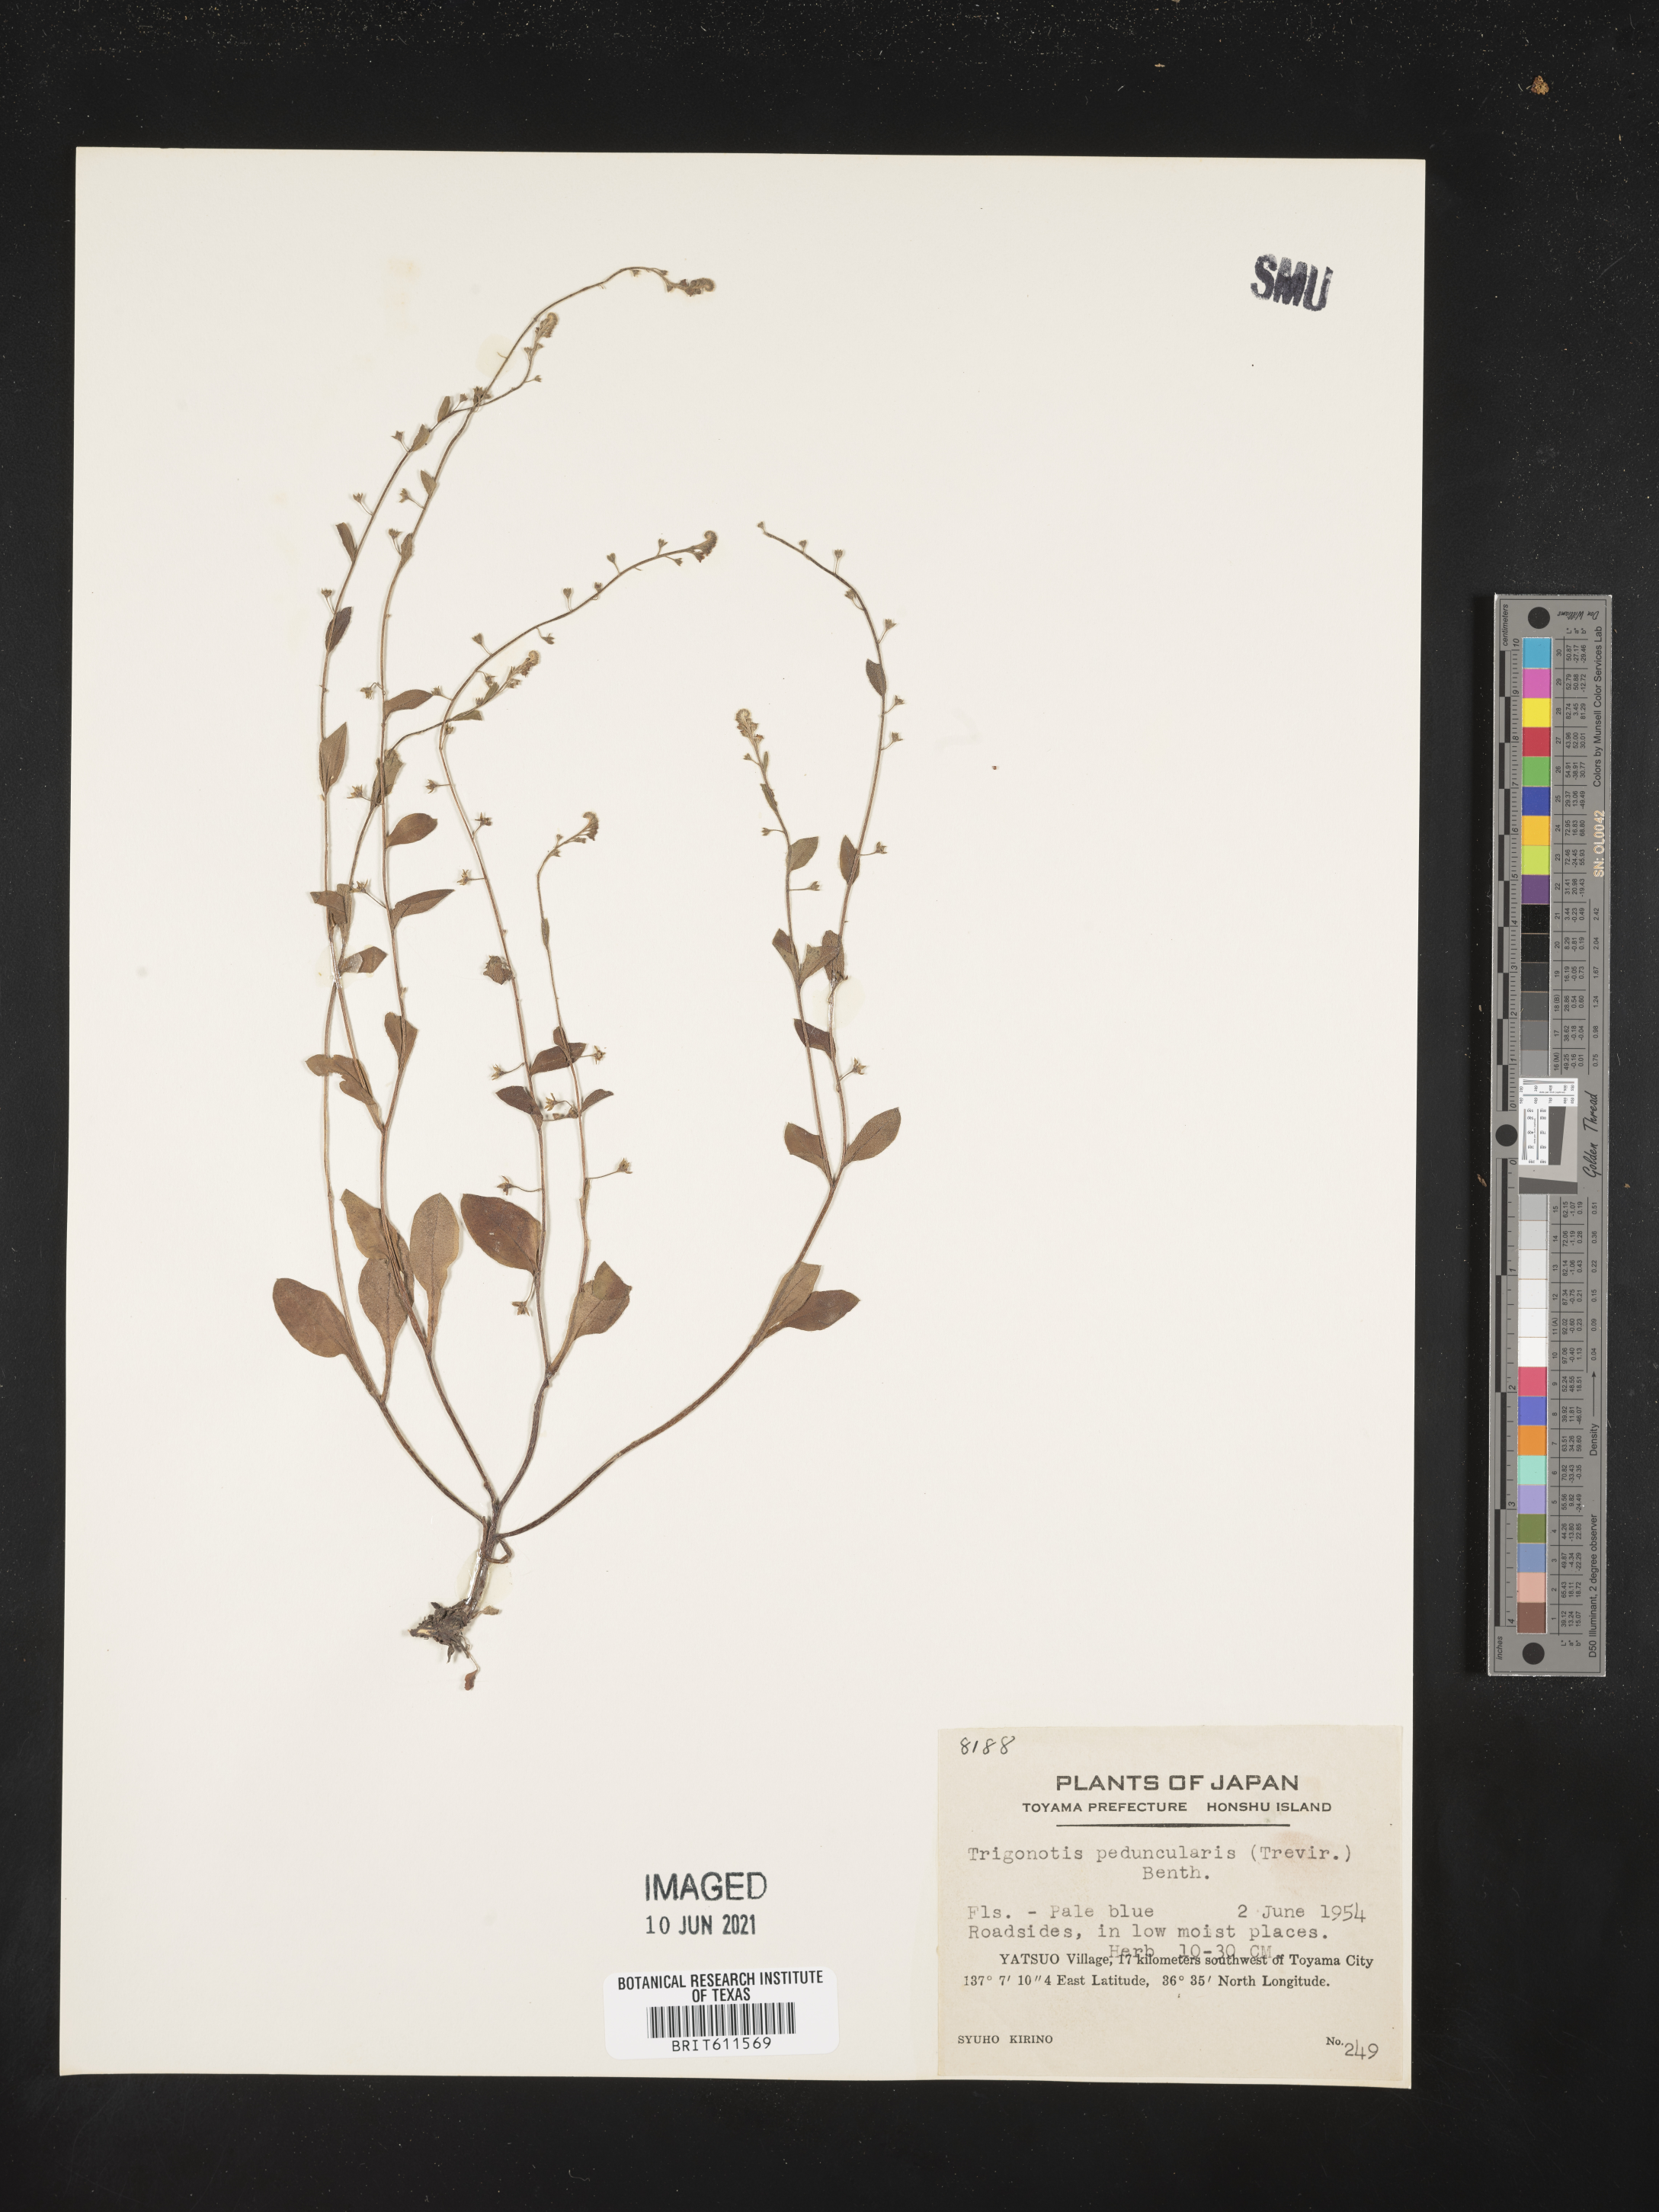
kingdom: Plantae
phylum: Tracheophyta
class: Magnoliopsida
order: Boraginales
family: Boraginaceae
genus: Trigonotis
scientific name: Trigonotis peduncularis
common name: Cucumber herb
